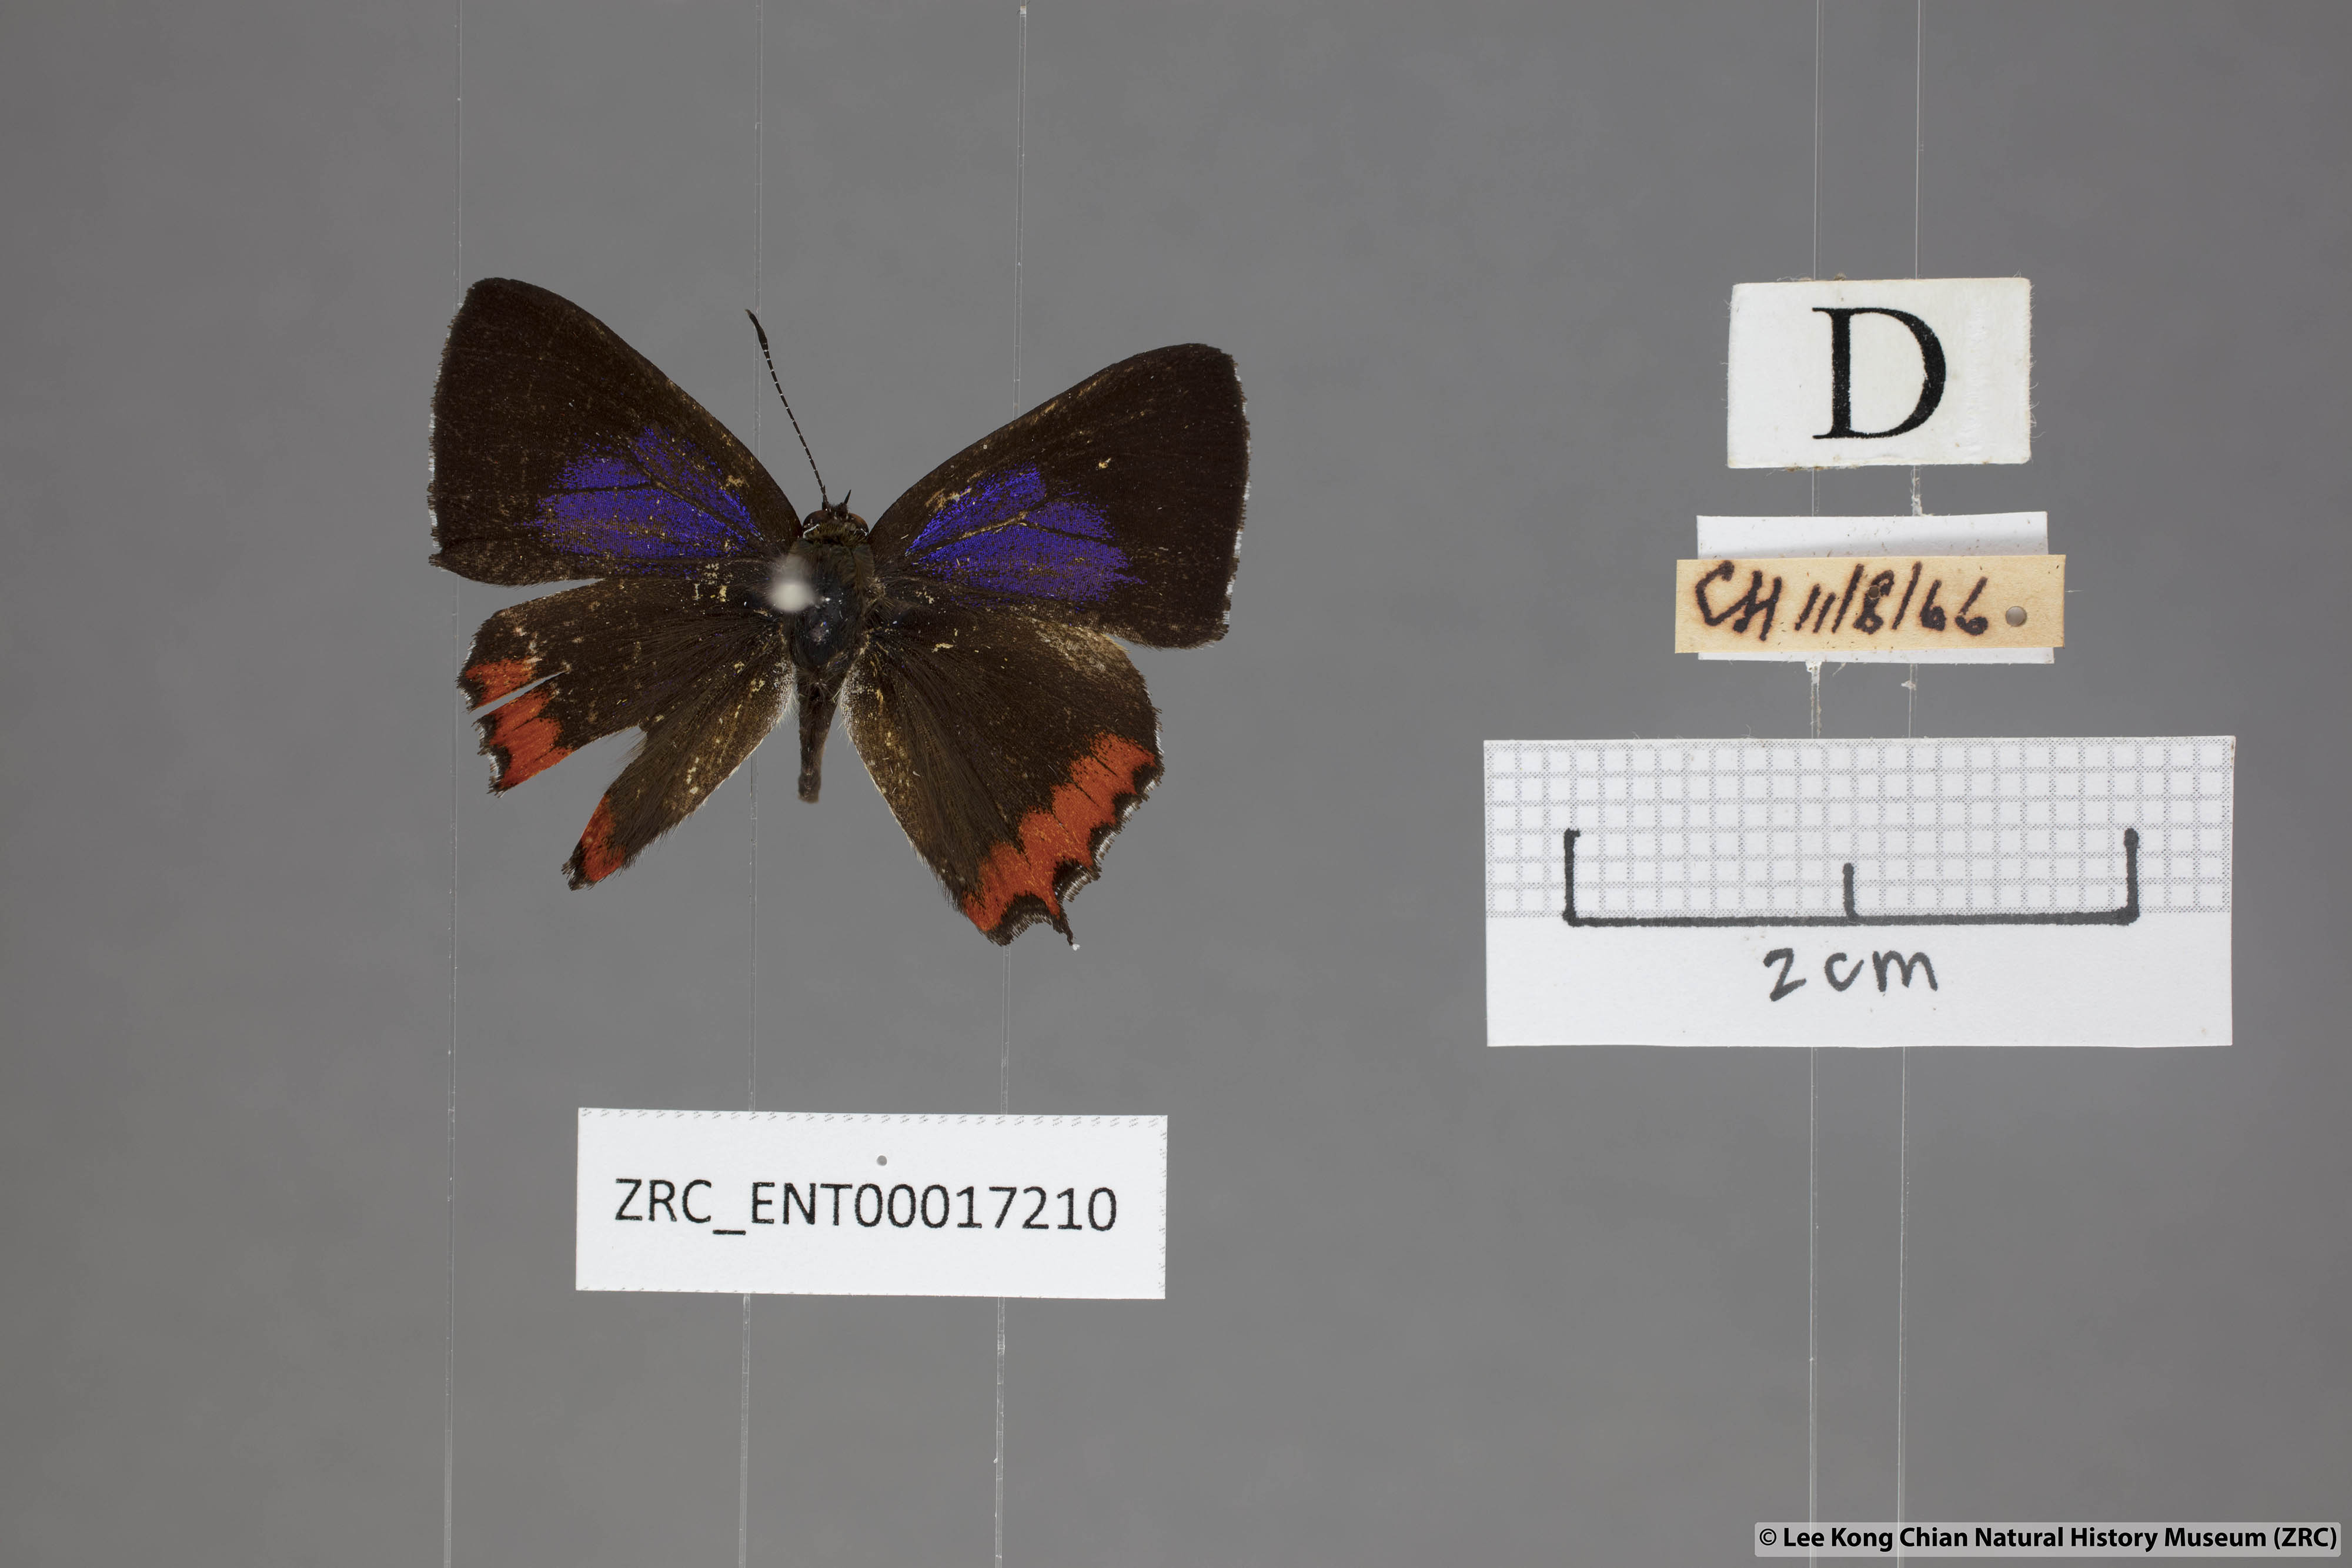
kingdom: Animalia
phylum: Arthropoda
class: Insecta
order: Lepidoptera
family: Lycaenidae
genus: Heliophorus
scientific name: Heliophorus ila
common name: Restricted purple sapphire
